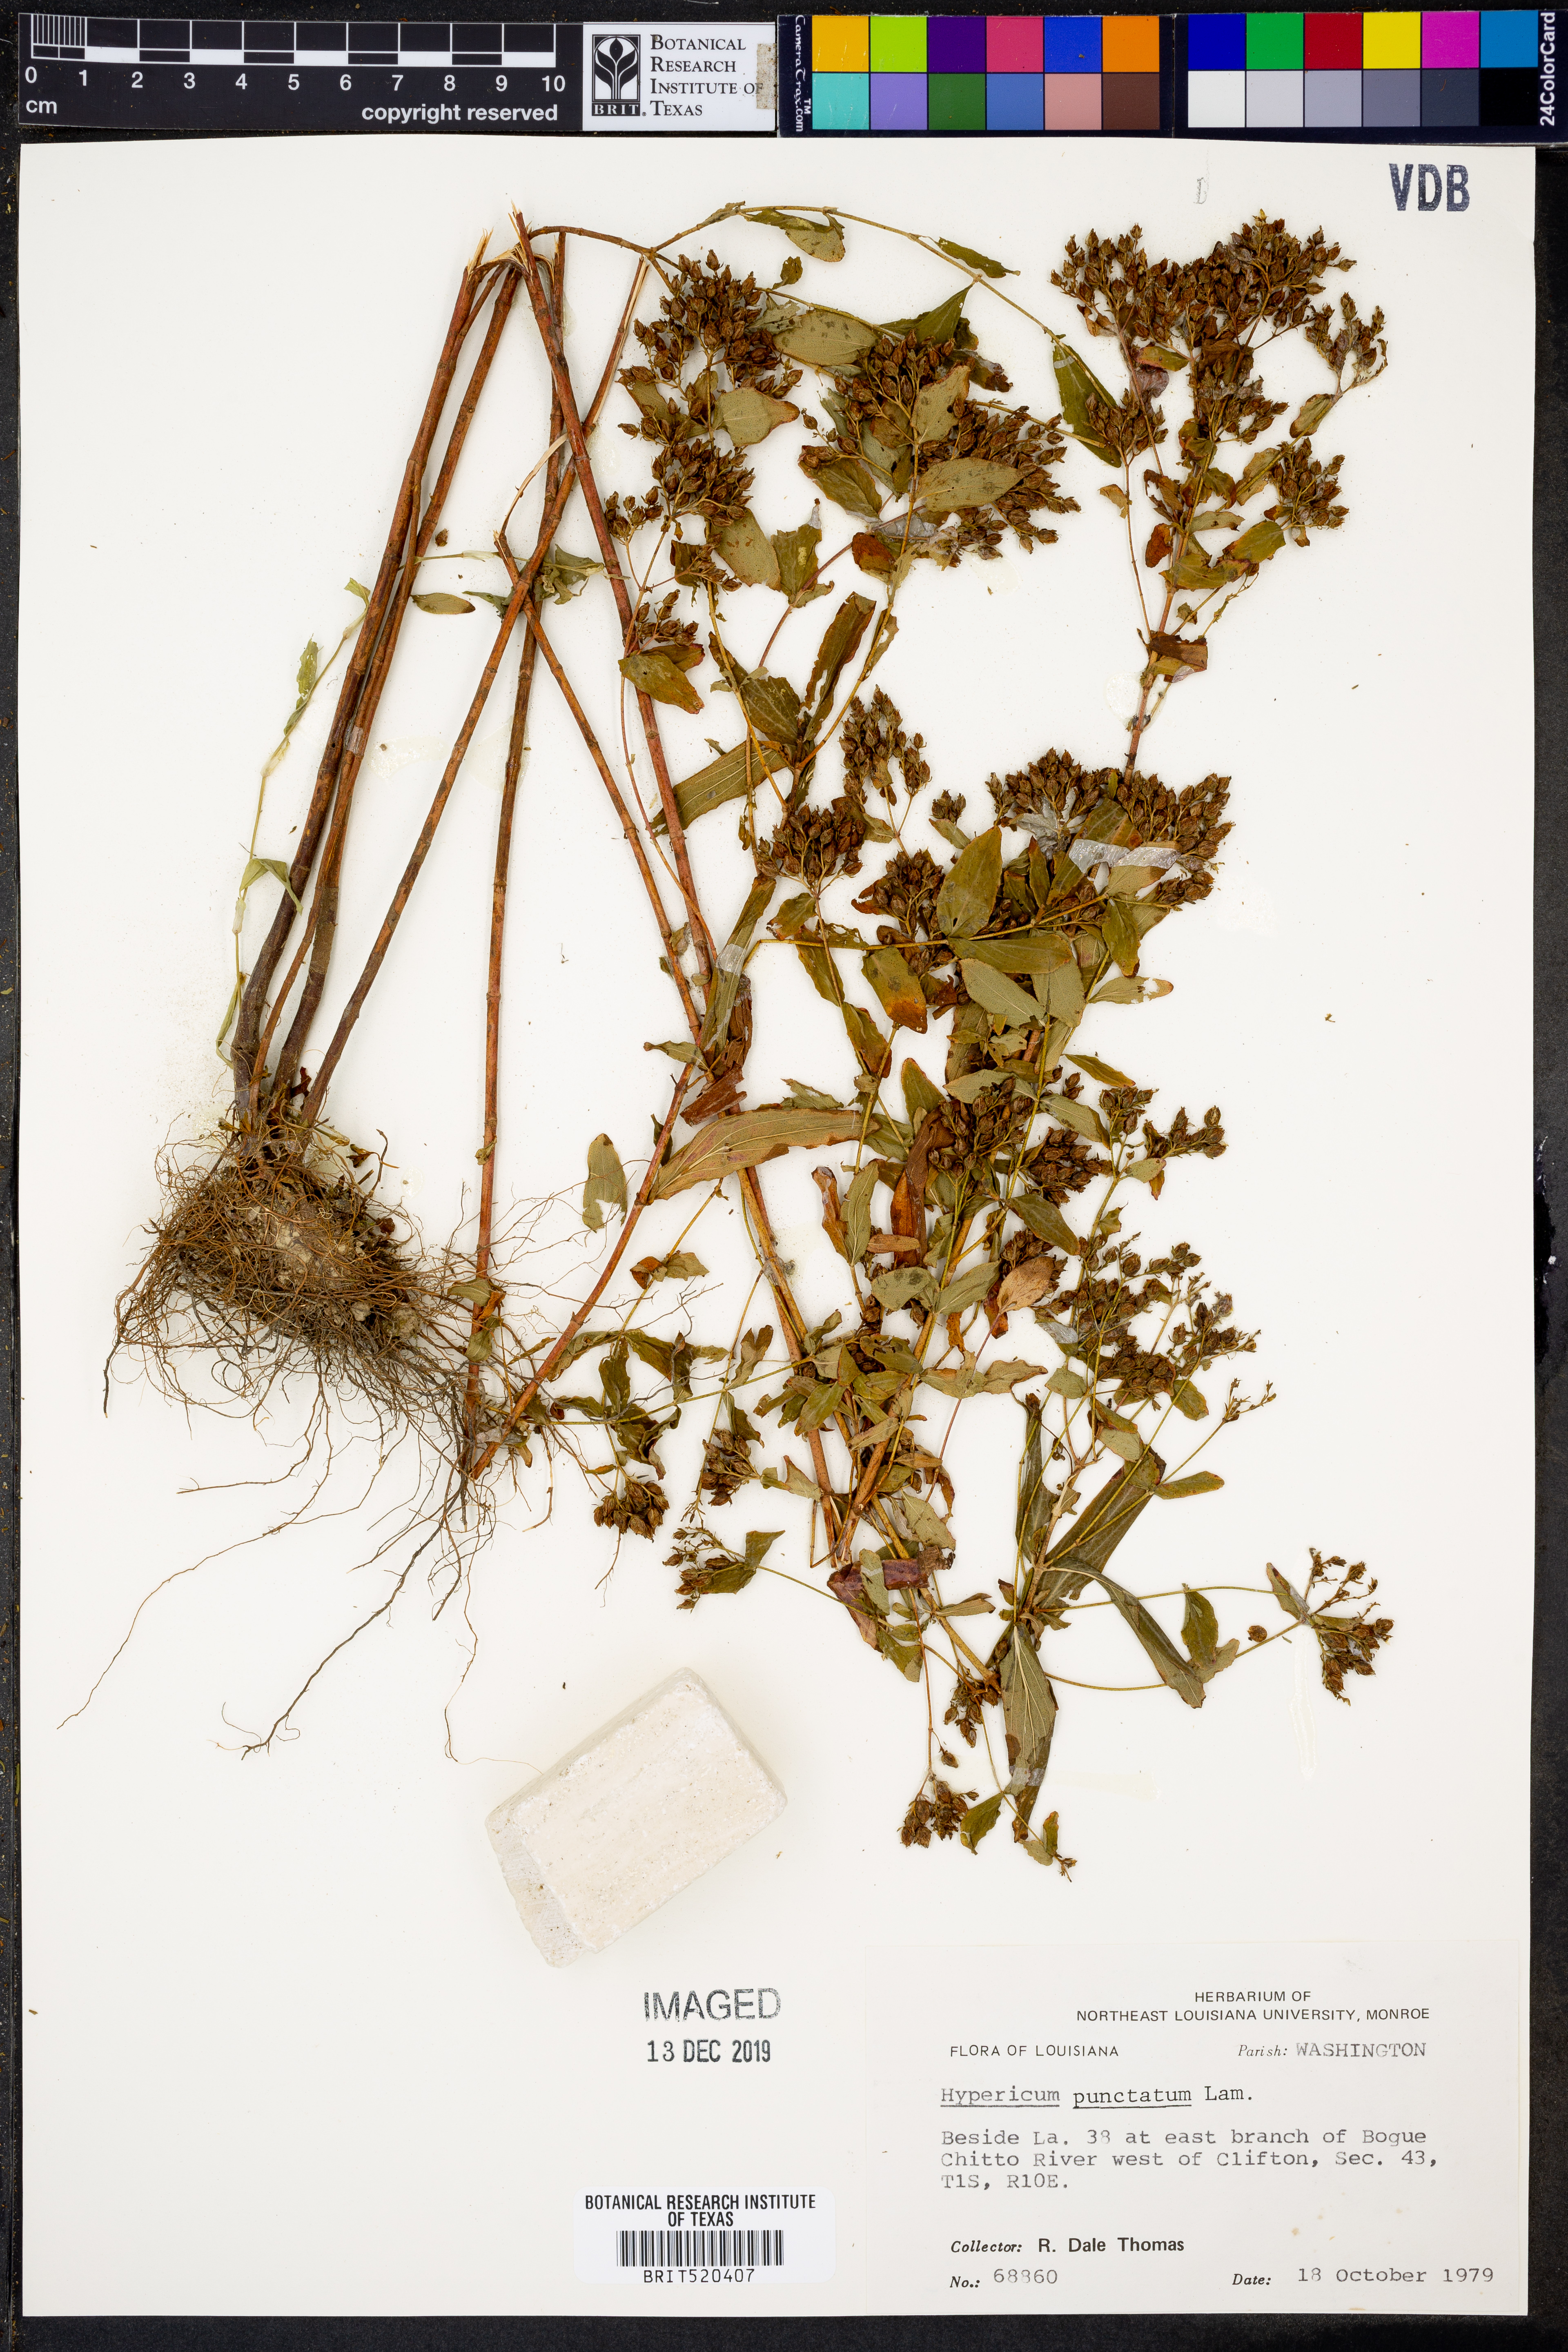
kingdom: Plantae
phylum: Tracheophyta
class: Magnoliopsida
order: Malpighiales
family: Hypericaceae
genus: Hypericum
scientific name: Hypericum punctatum
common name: Spotted st. john's-wort
